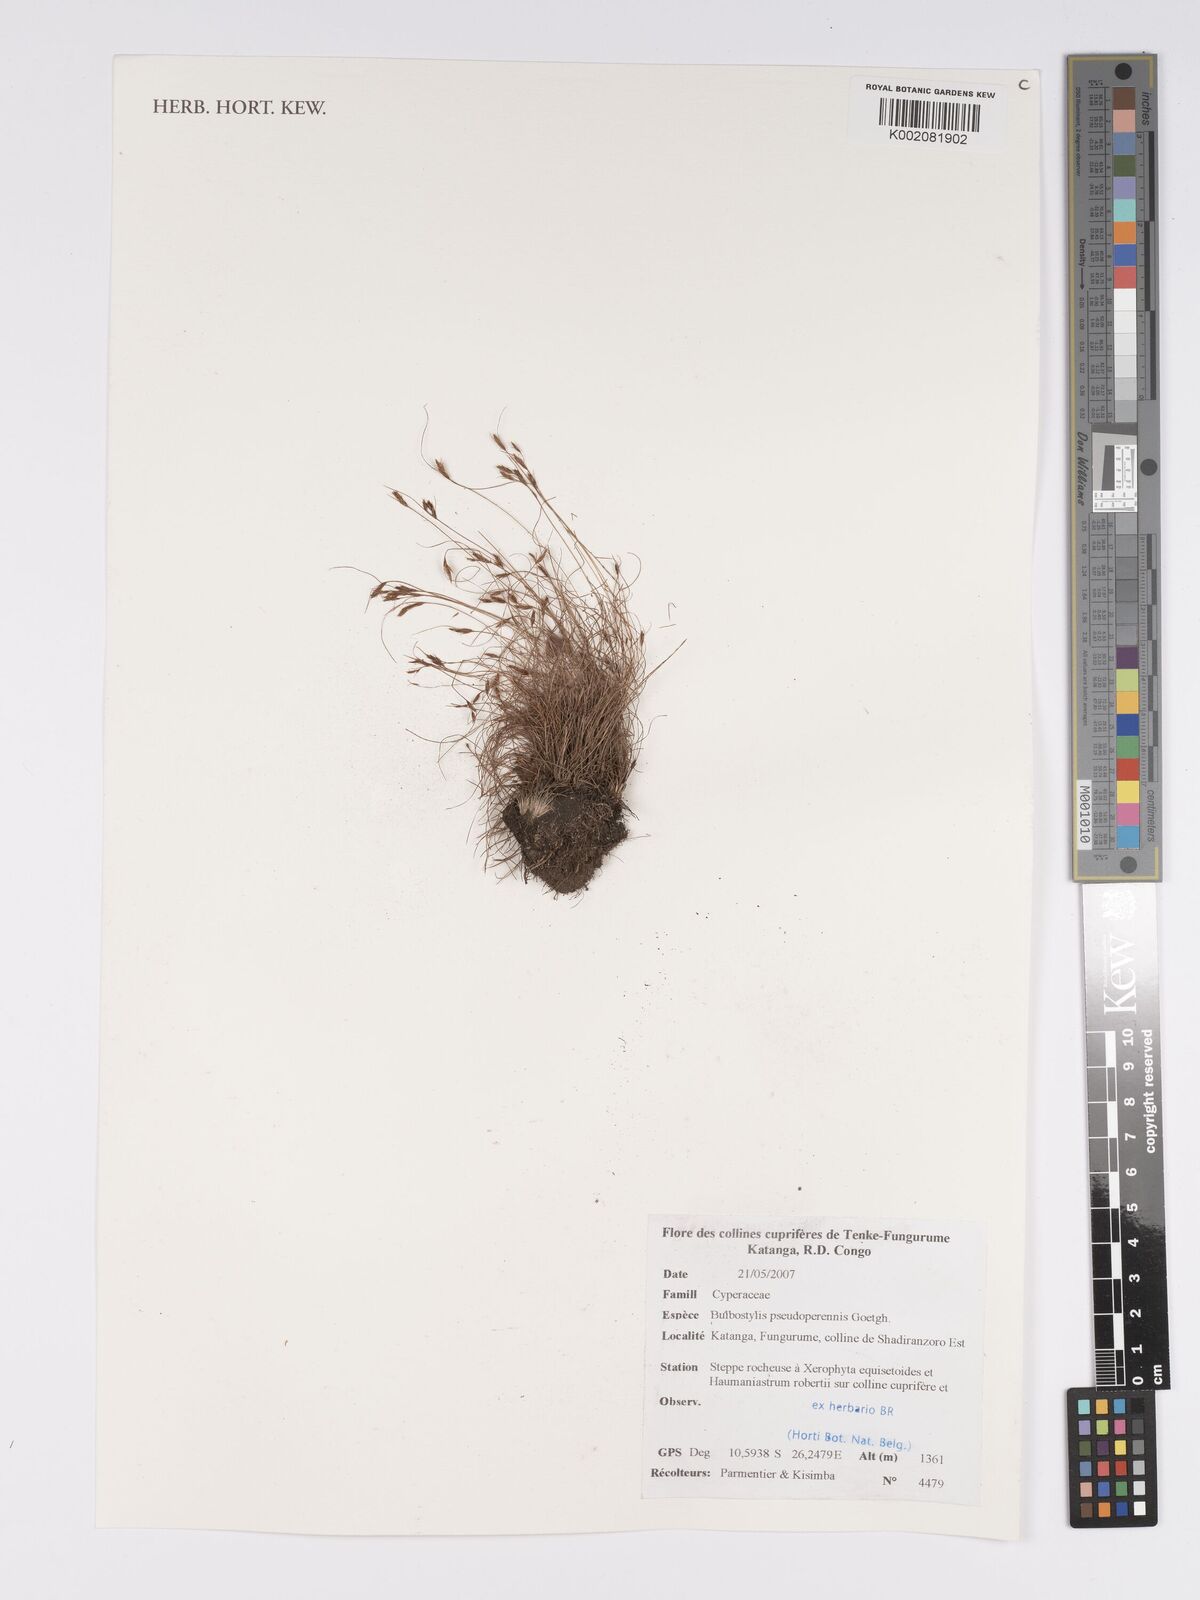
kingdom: Plantae
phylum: Tracheophyta
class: Liliopsida
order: Poales
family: Cyperaceae
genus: Bulbostylis
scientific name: Bulbostylis abbreviata
